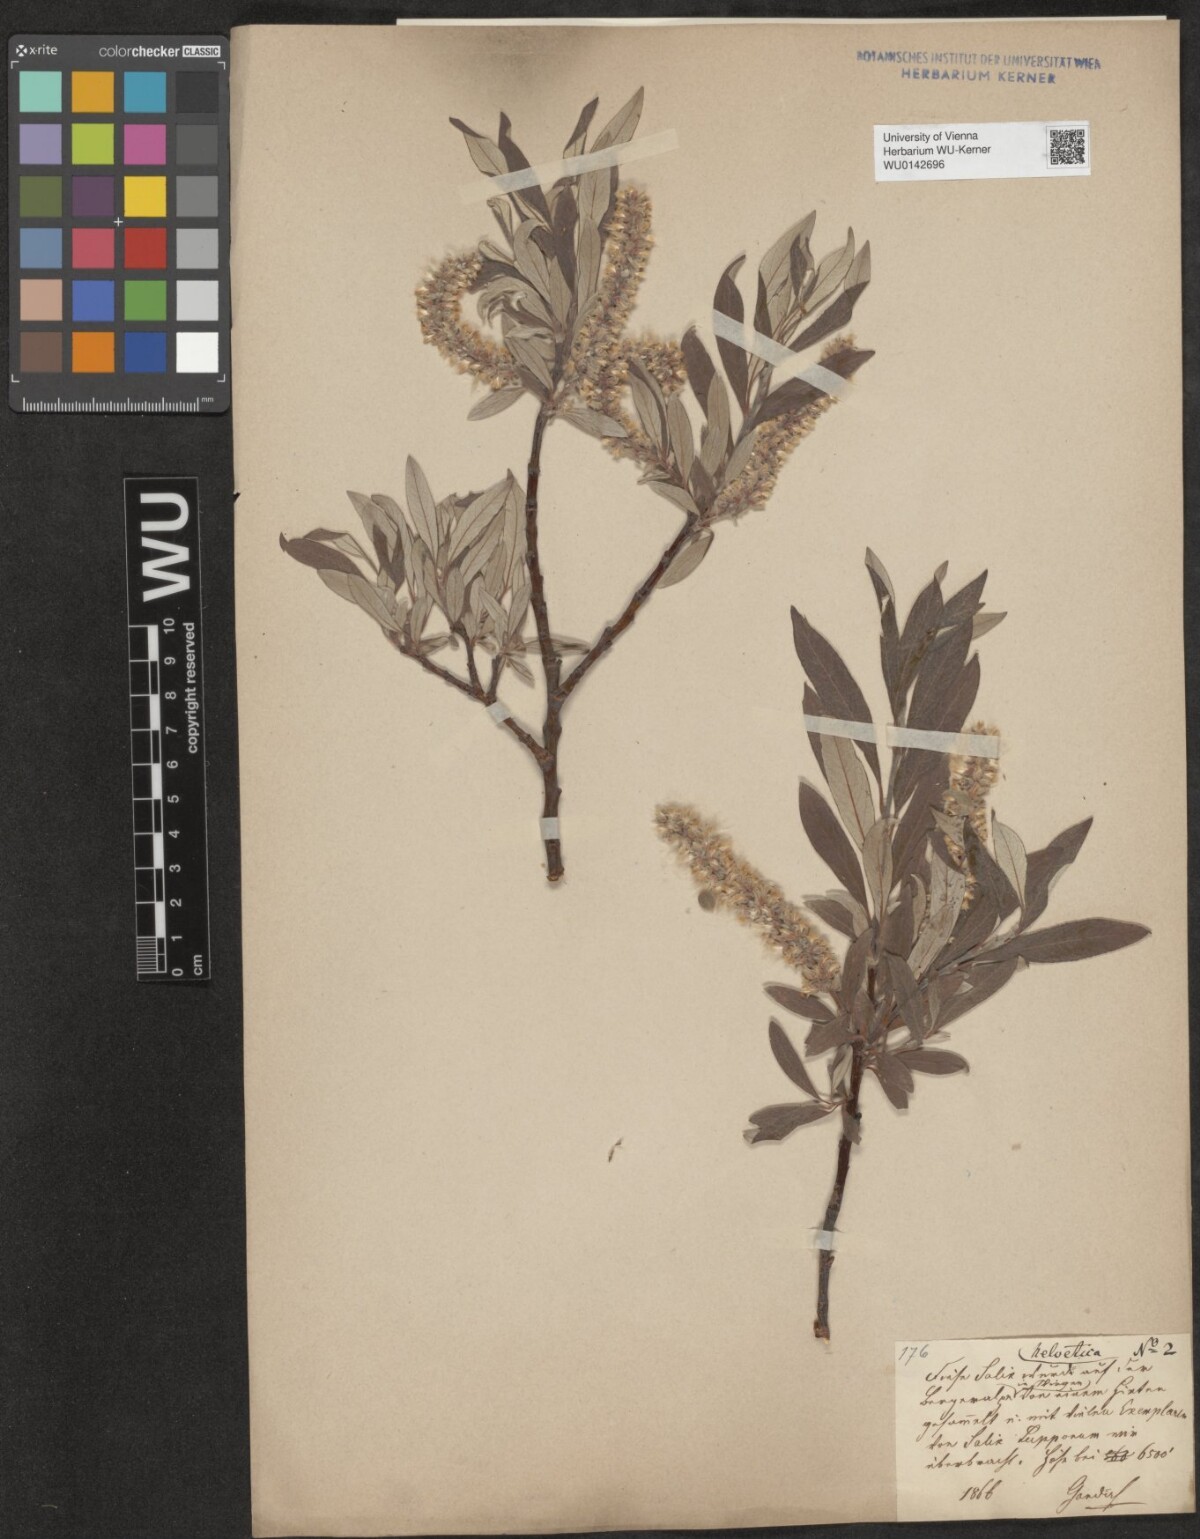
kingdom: Plantae
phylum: Tracheophyta
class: Magnoliopsida
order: Malpighiales
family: Salicaceae
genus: Salix
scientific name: Salix helvetica
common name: Swiss willow
